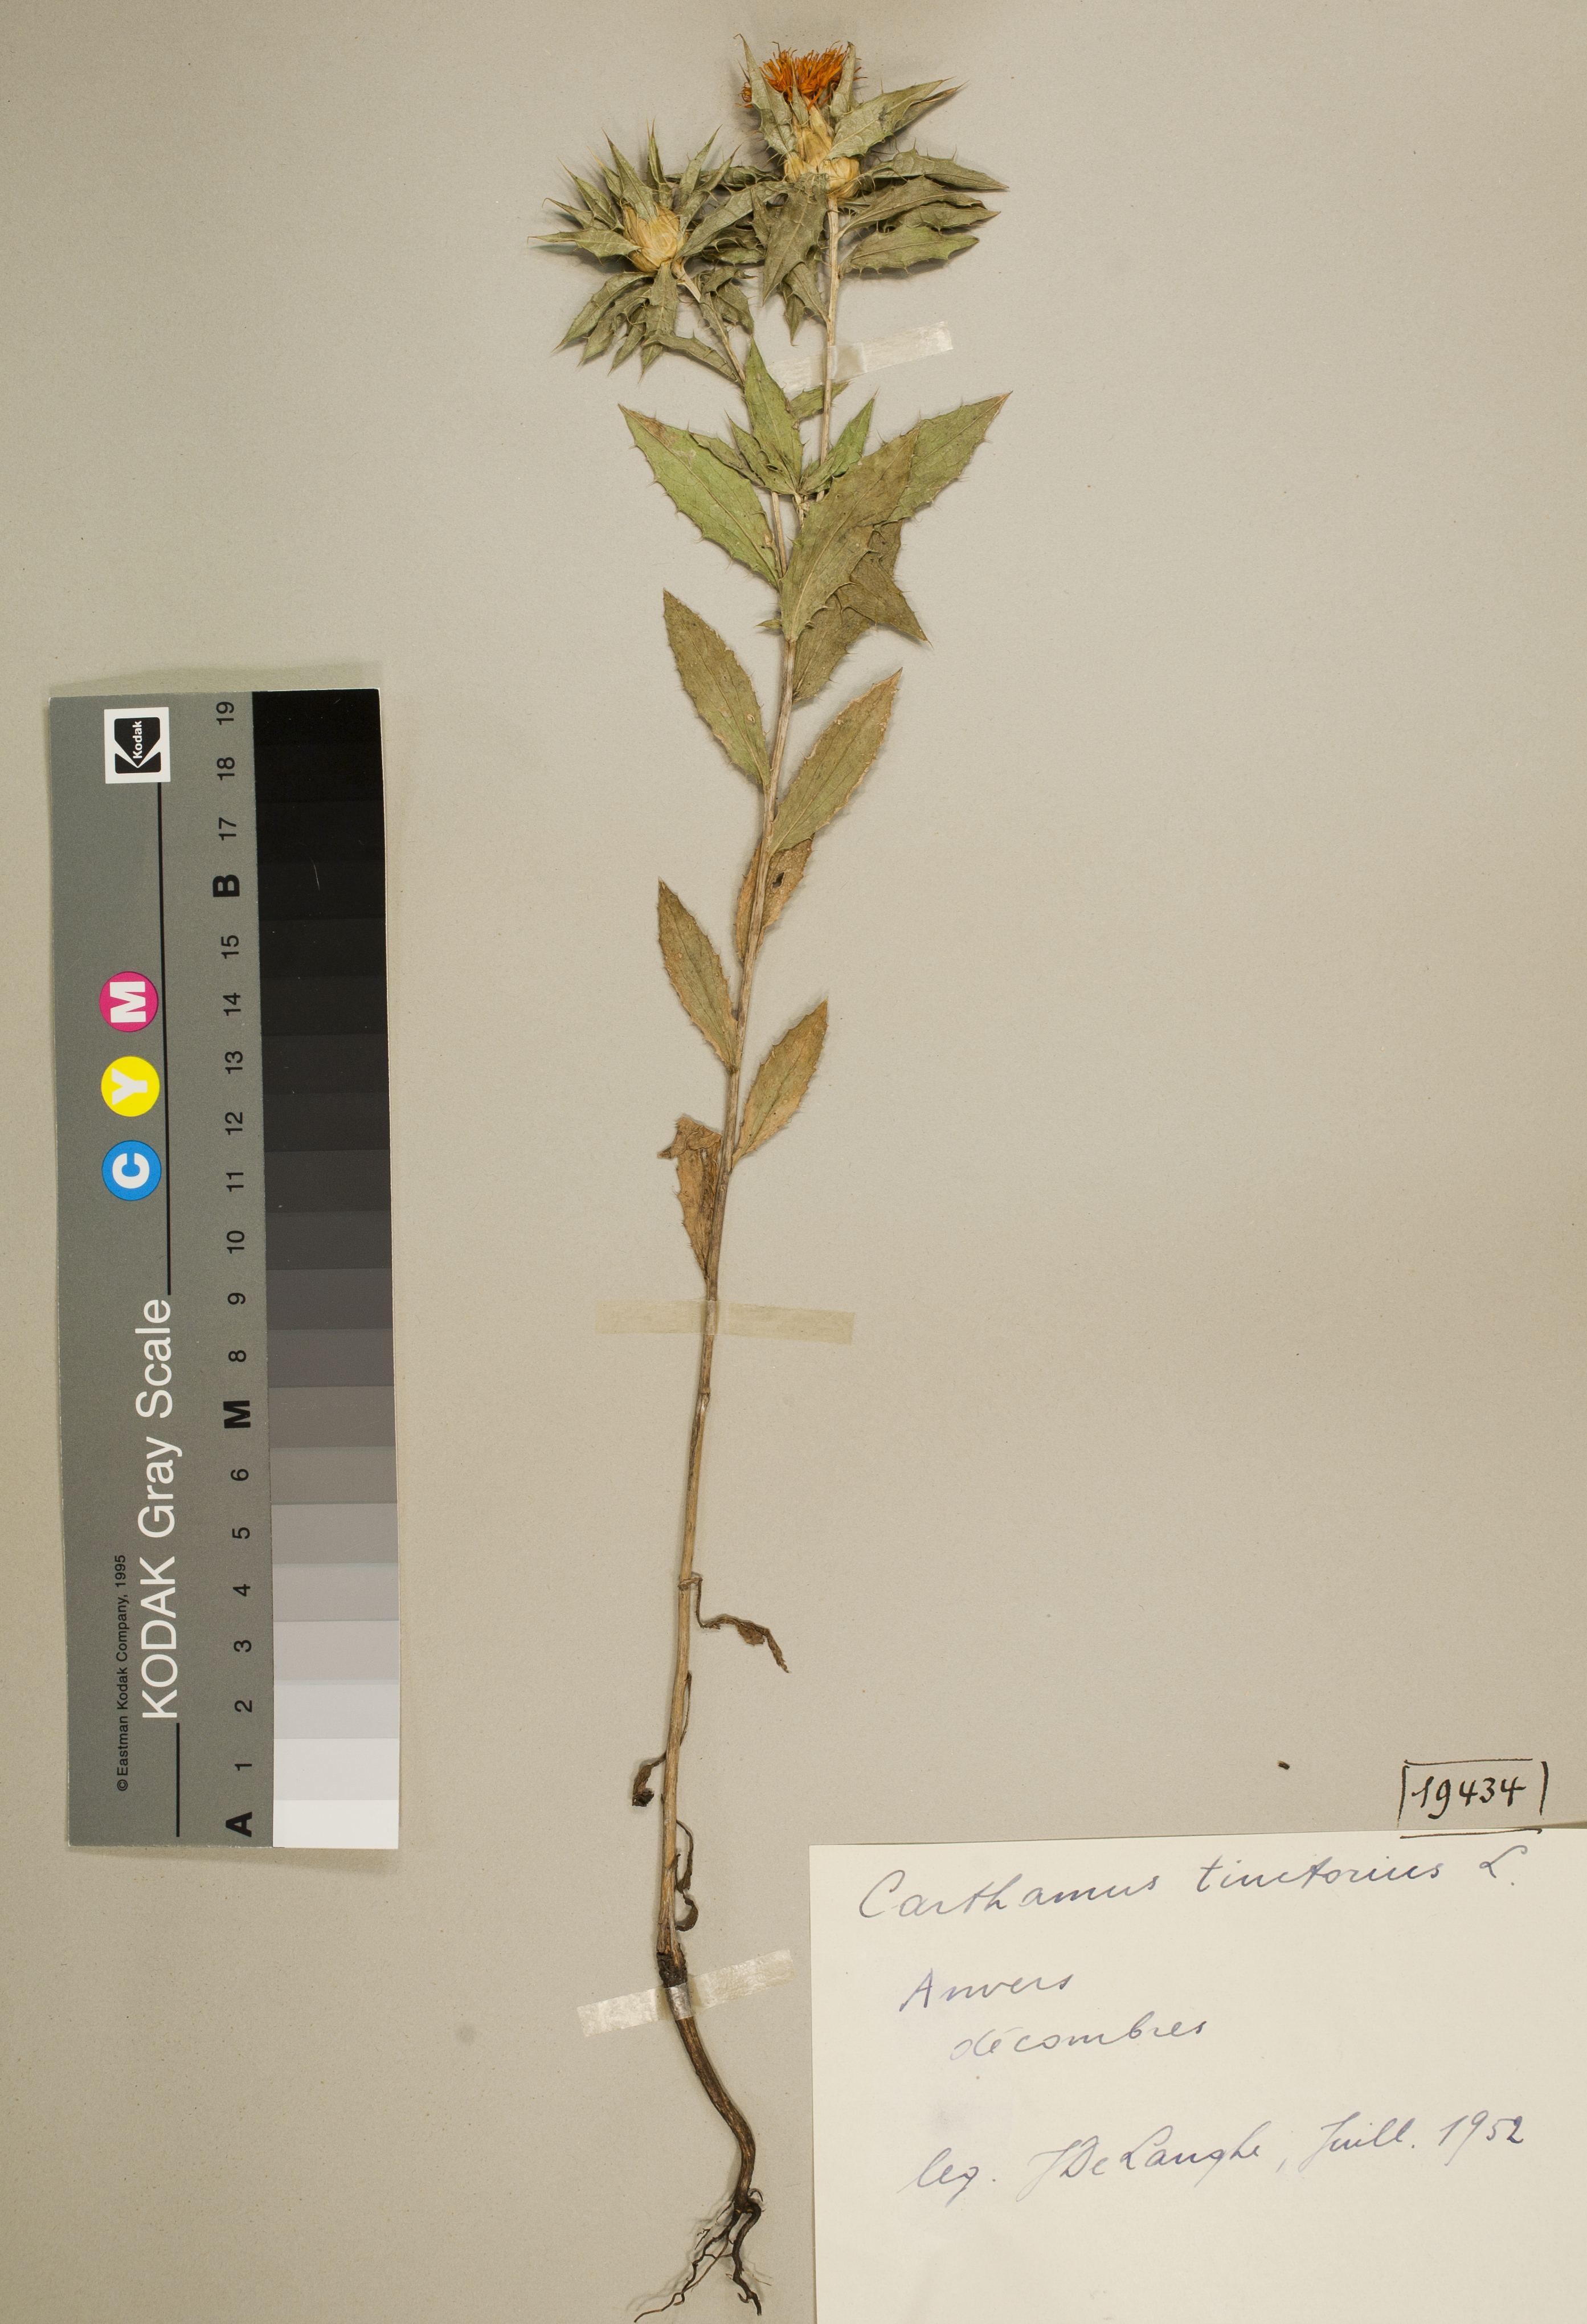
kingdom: Plantae
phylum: Tracheophyta
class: Magnoliopsida
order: Asterales
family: Asteraceae
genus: Carthamus
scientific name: Carthamus tinctorius
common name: Safflower
